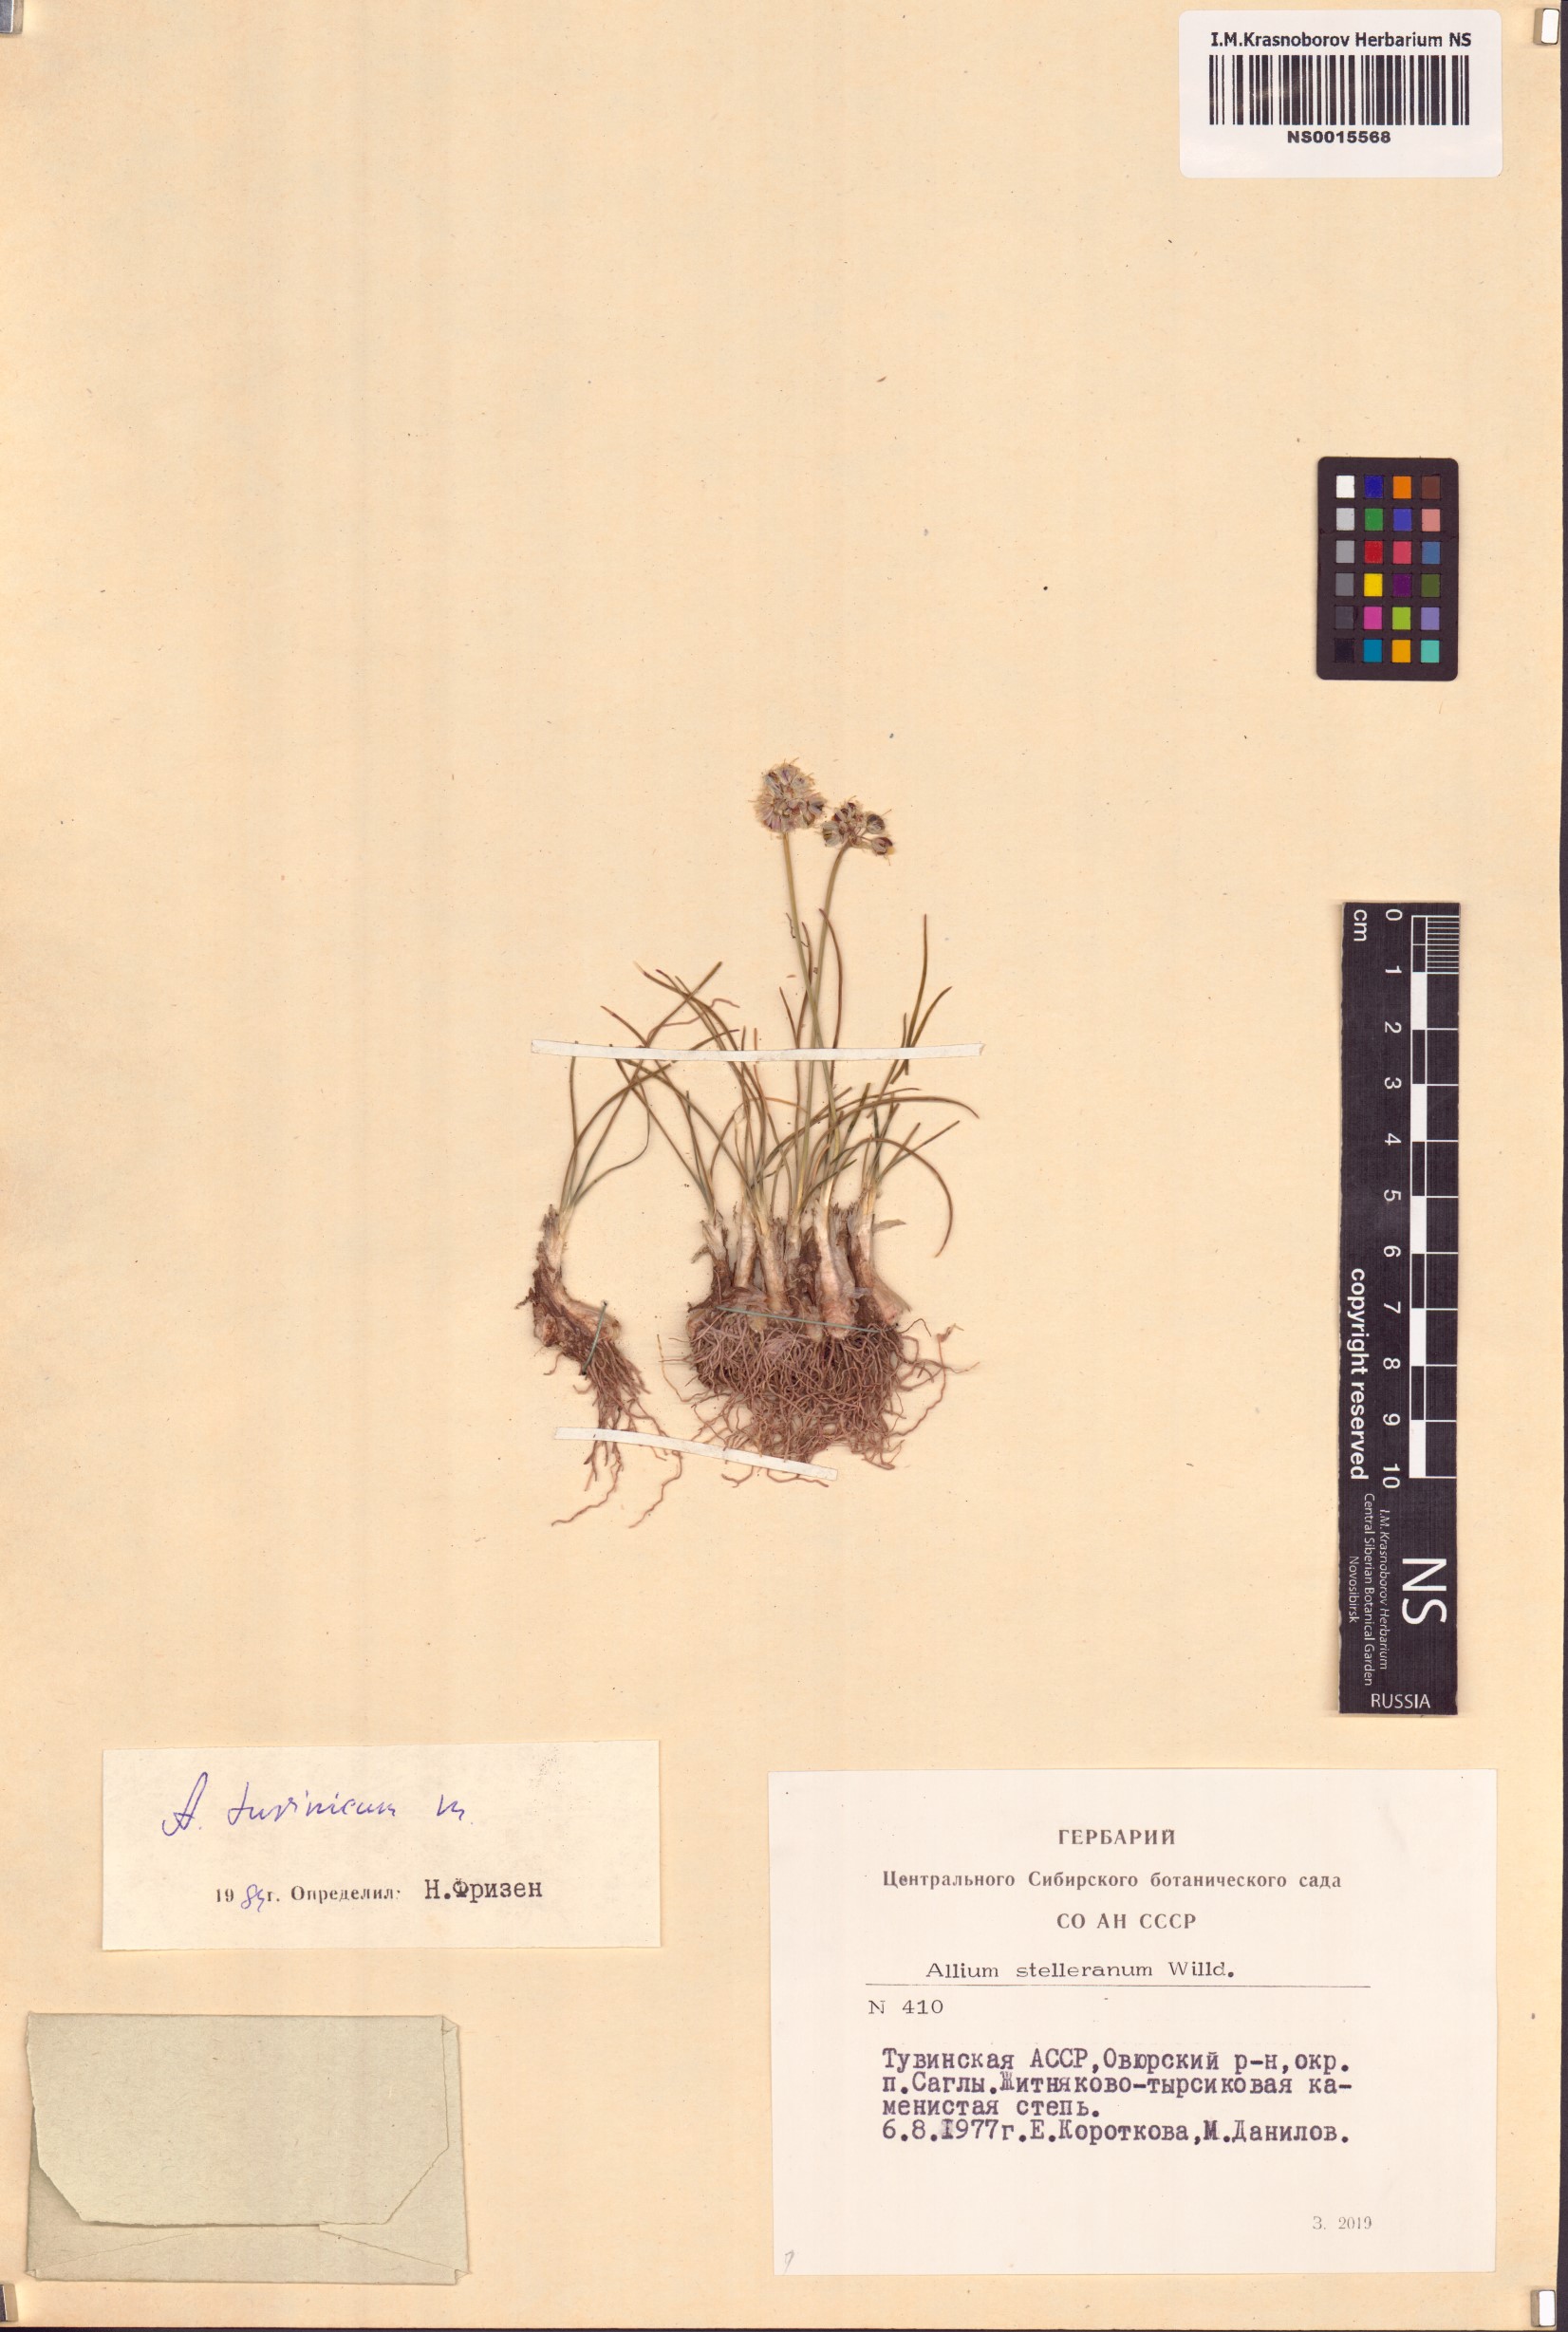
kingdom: Plantae
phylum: Tracheophyta
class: Liliopsida
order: Asparagales
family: Amaryllidaceae
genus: Allium
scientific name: Allium tuvinicum
